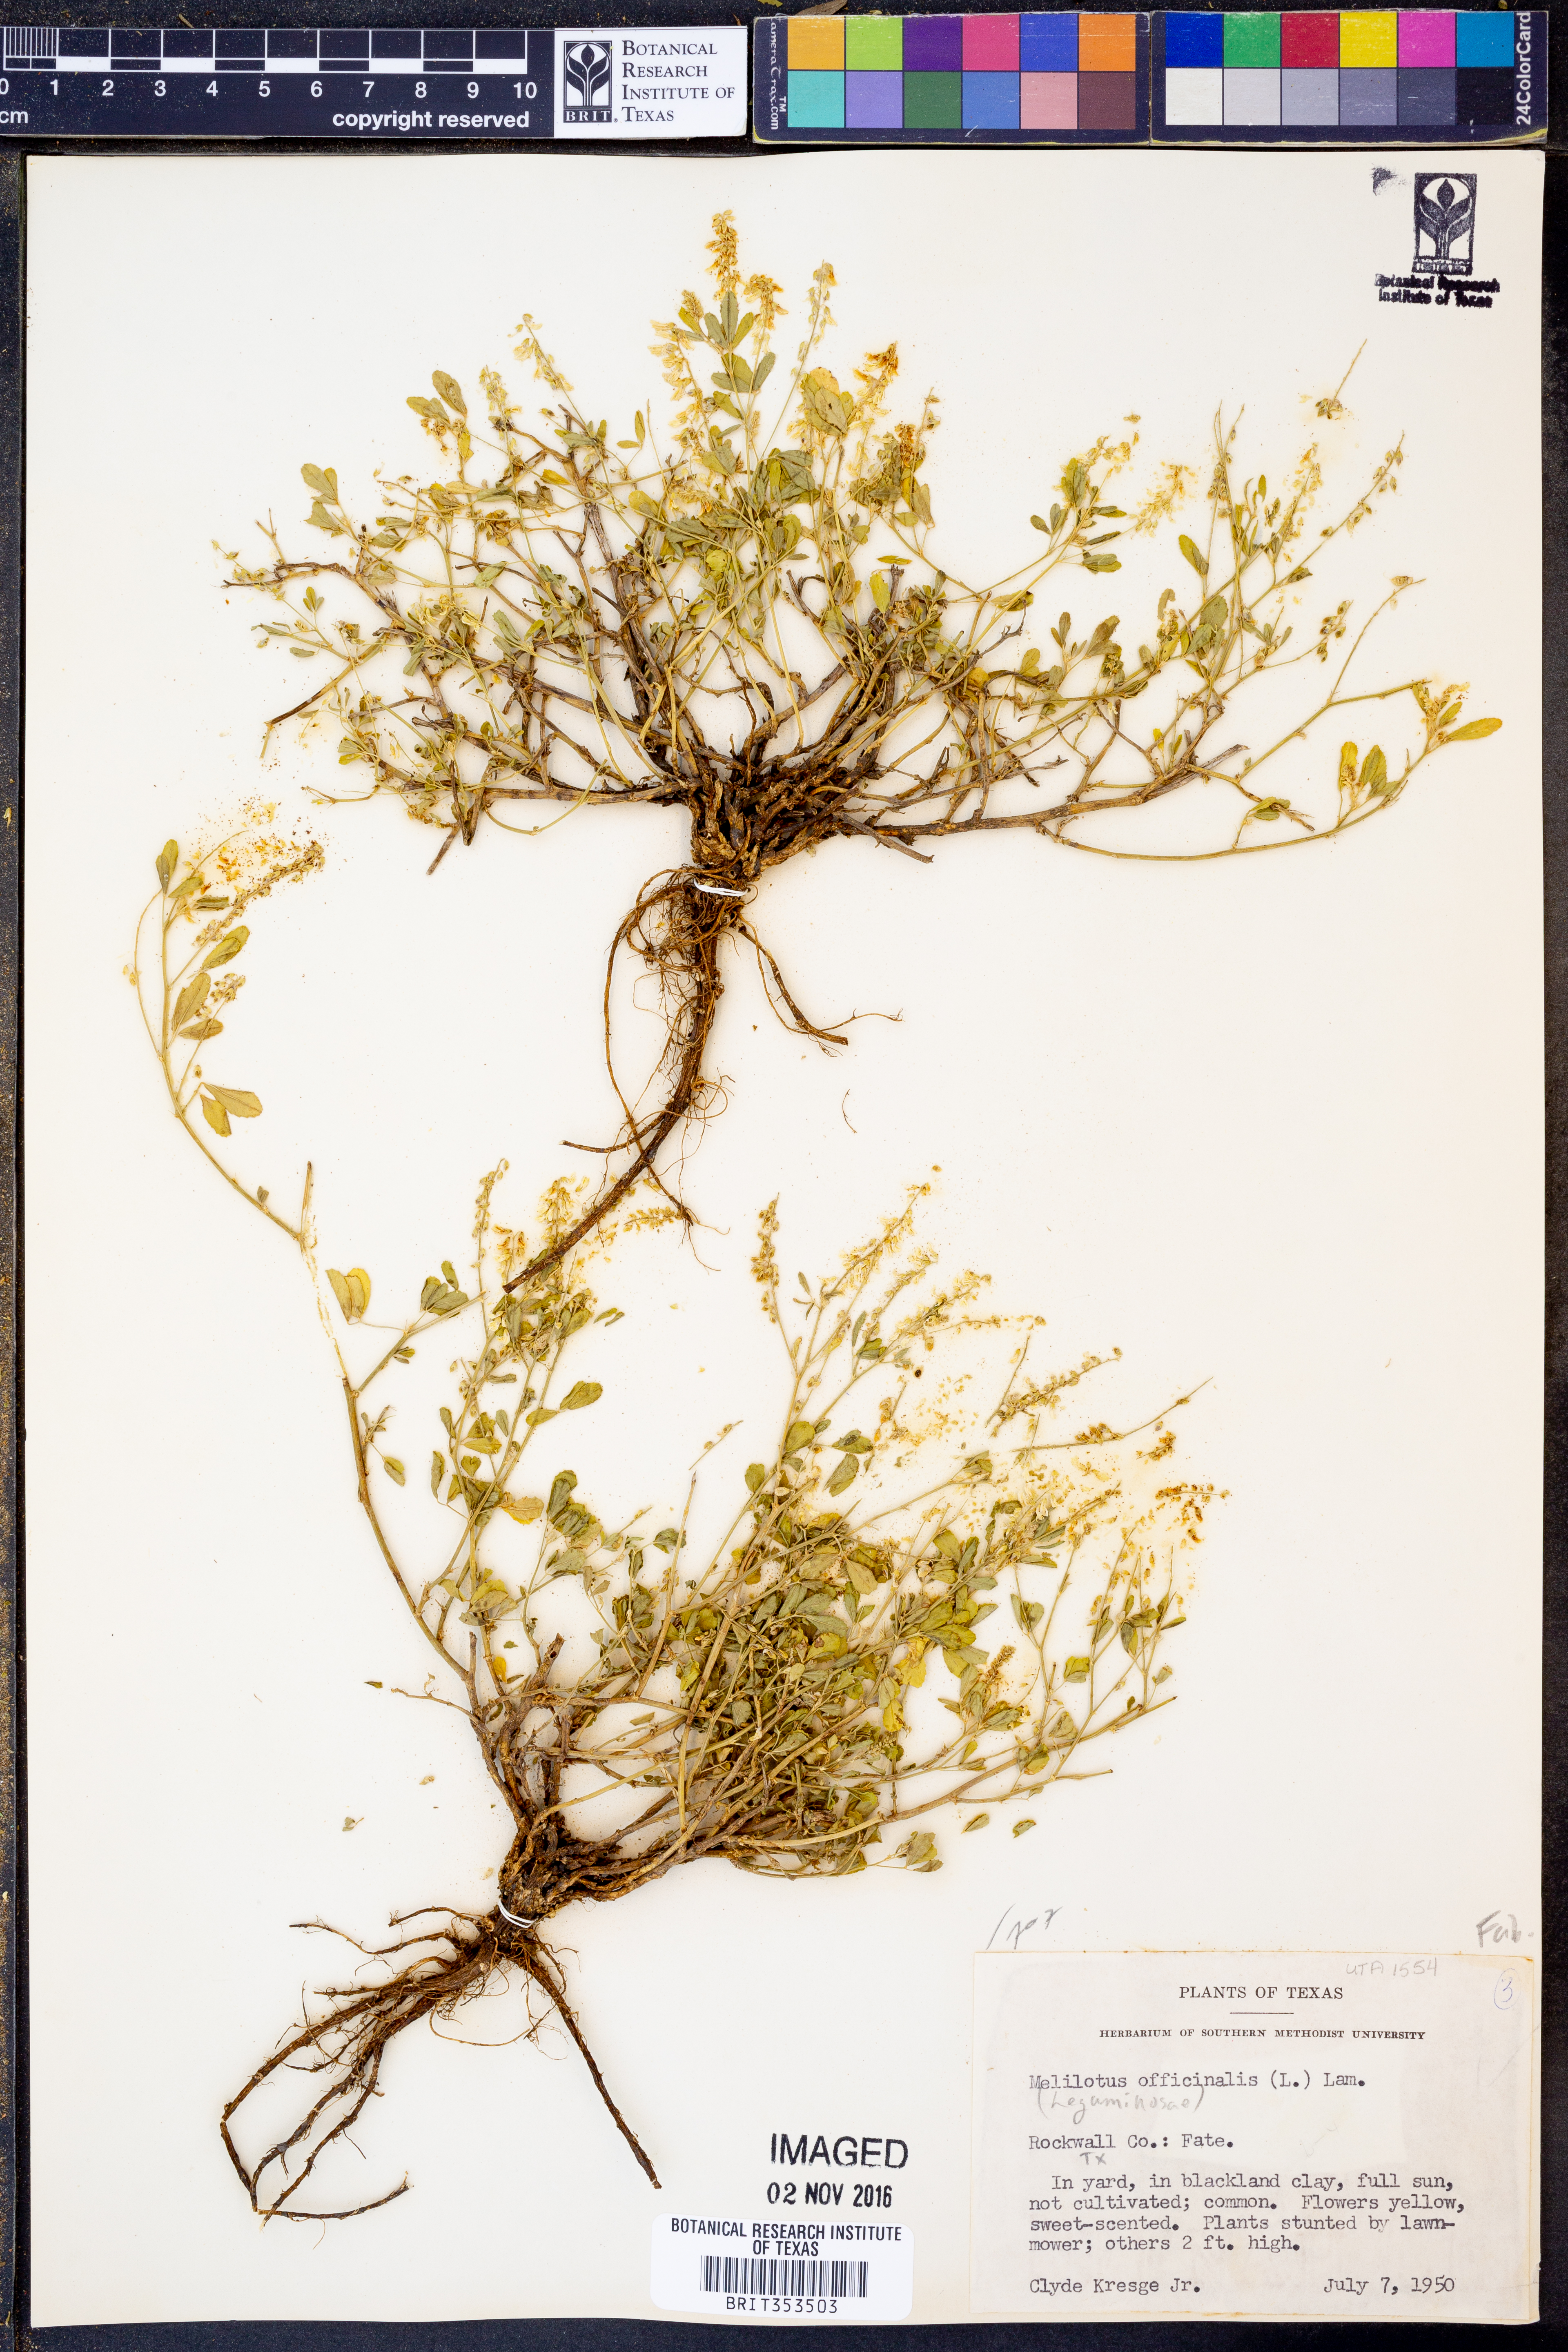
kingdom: Plantae
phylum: Tracheophyta
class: Magnoliopsida
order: Fabales
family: Fabaceae
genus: Melilotus
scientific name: Melilotus officinalis
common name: Sweetclover
